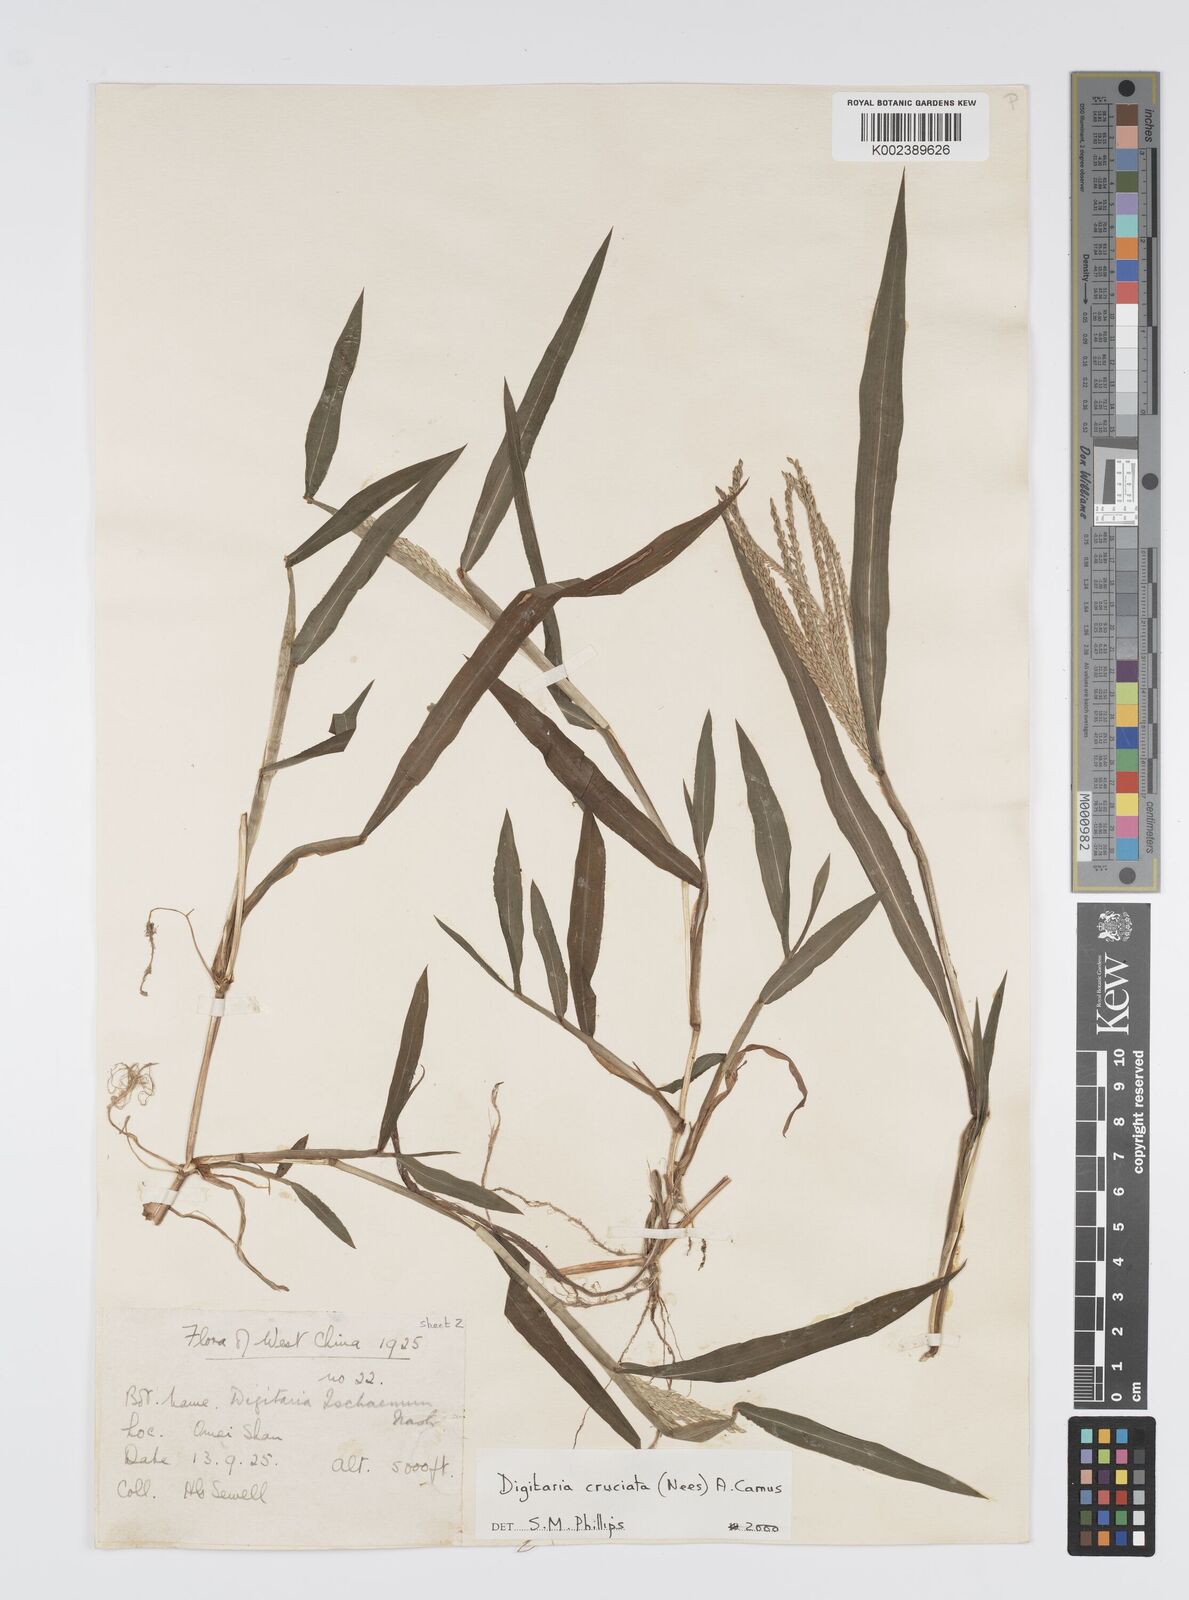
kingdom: Plantae
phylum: Tracheophyta
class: Liliopsida
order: Poales
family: Poaceae
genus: Digitaria
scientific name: Digitaria cruciata
